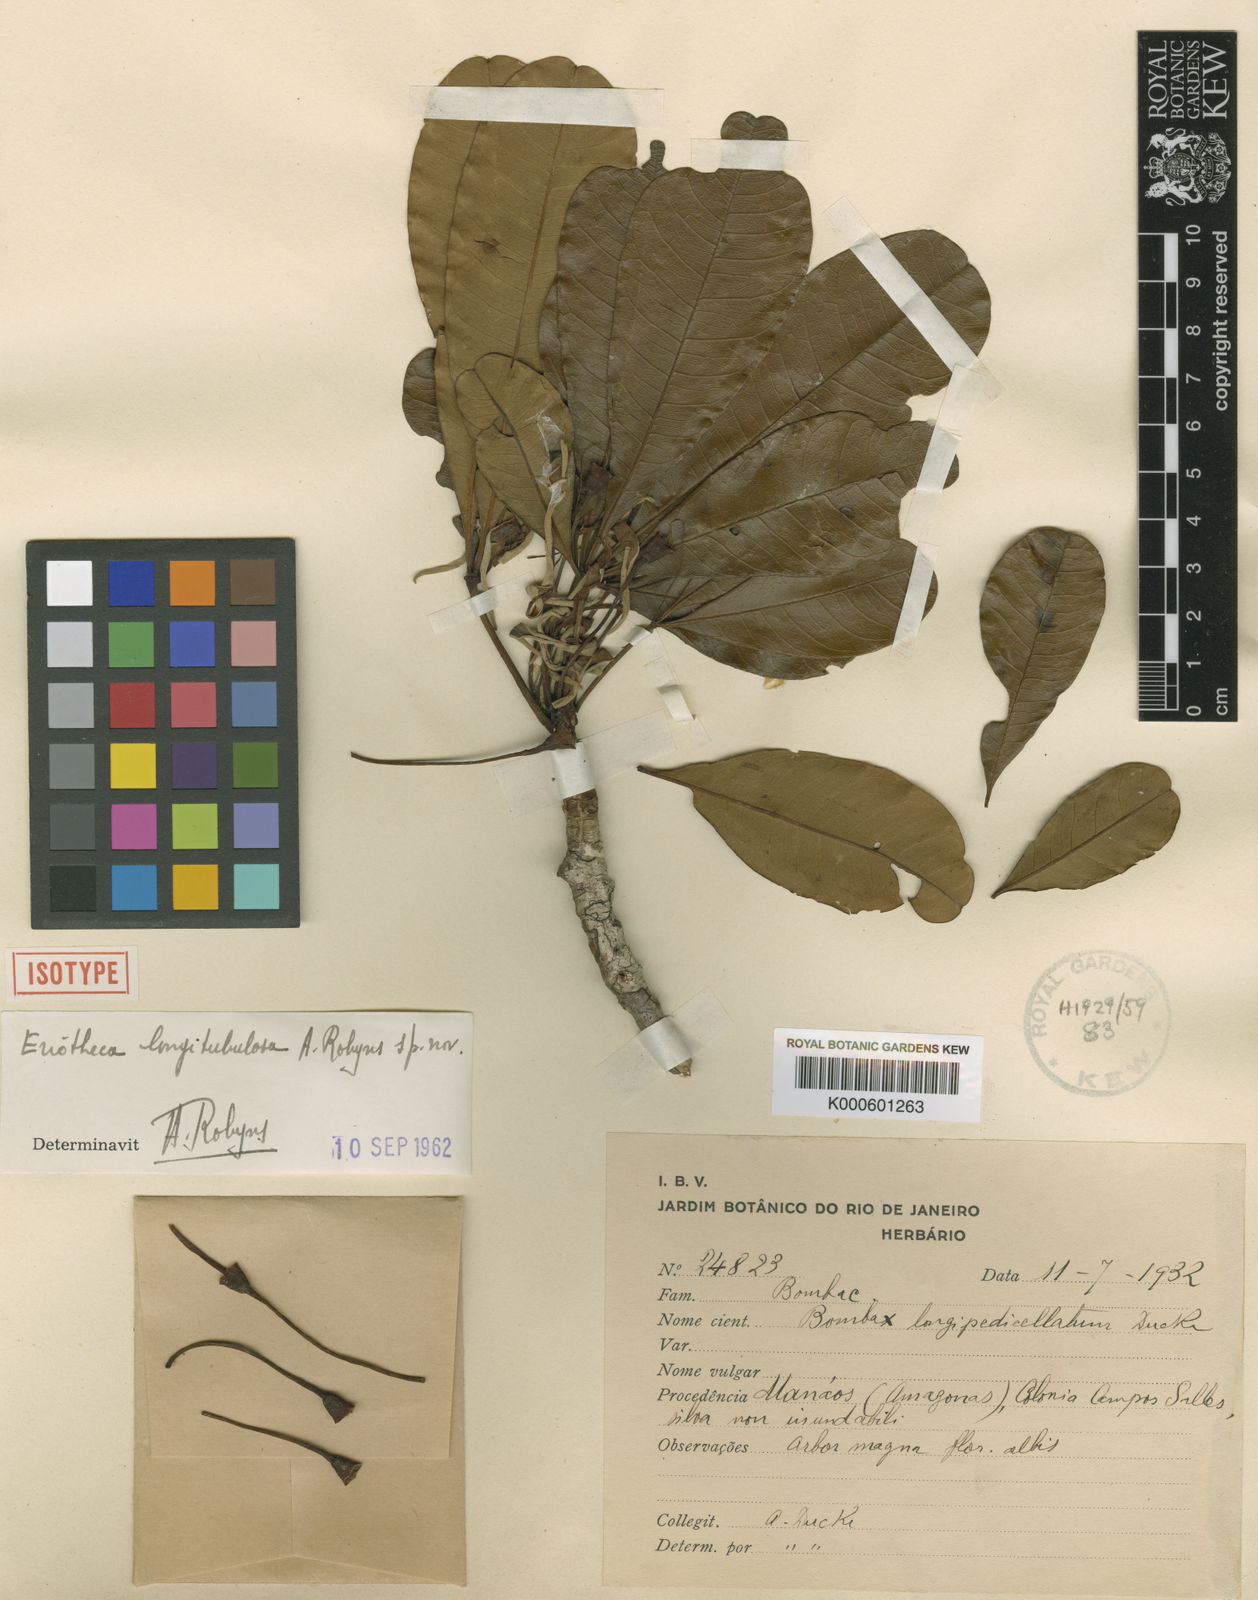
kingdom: Plantae
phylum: Tracheophyta
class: Magnoliopsida
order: Malvales
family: Malvaceae
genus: Eriotheca
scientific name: Eriotheca longitubulosa
